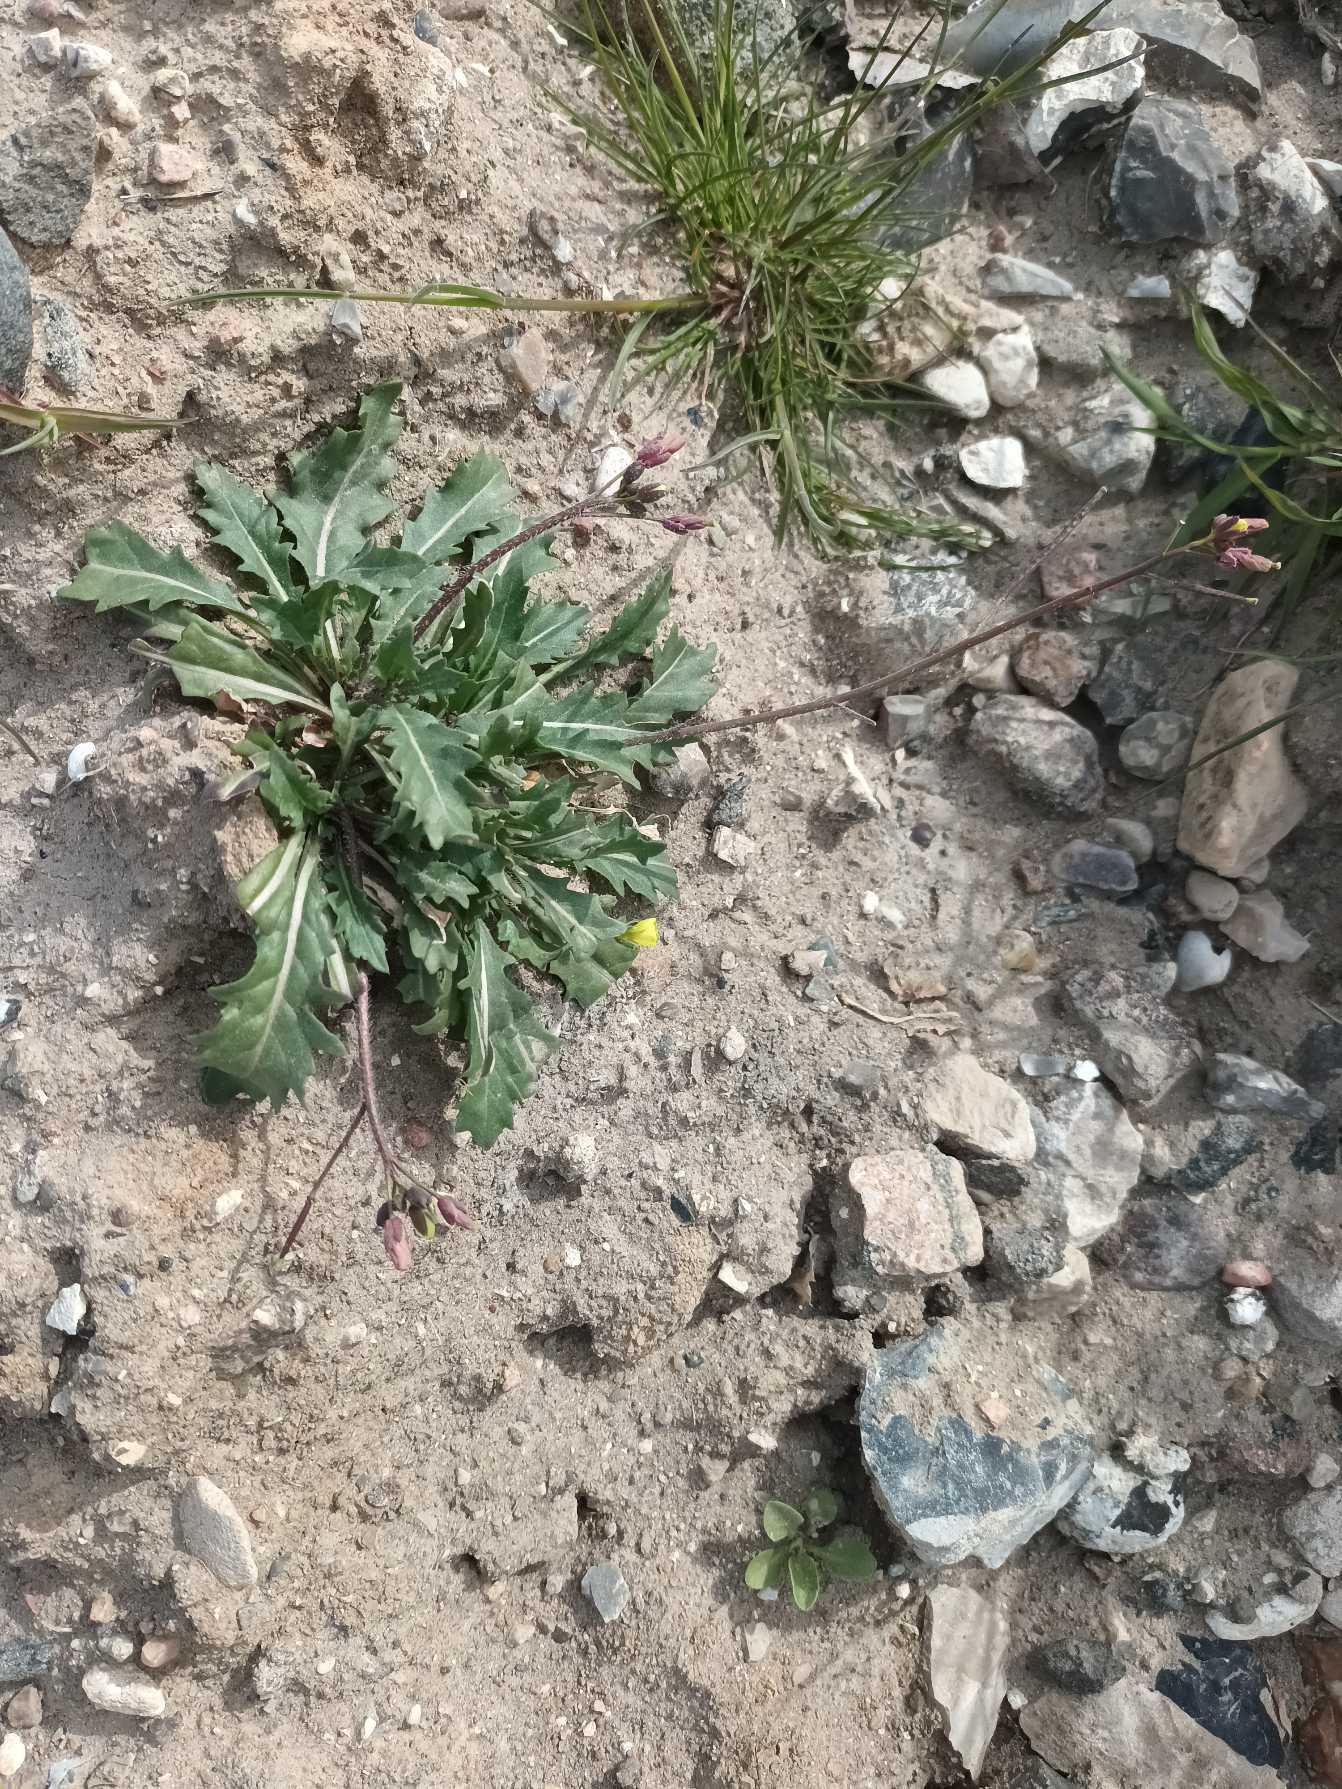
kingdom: Plantae
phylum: Tracheophyta
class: Magnoliopsida
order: Brassicales
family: Brassicaceae
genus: Diplotaxis
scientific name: Diplotaxis muralis
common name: Mursennep
